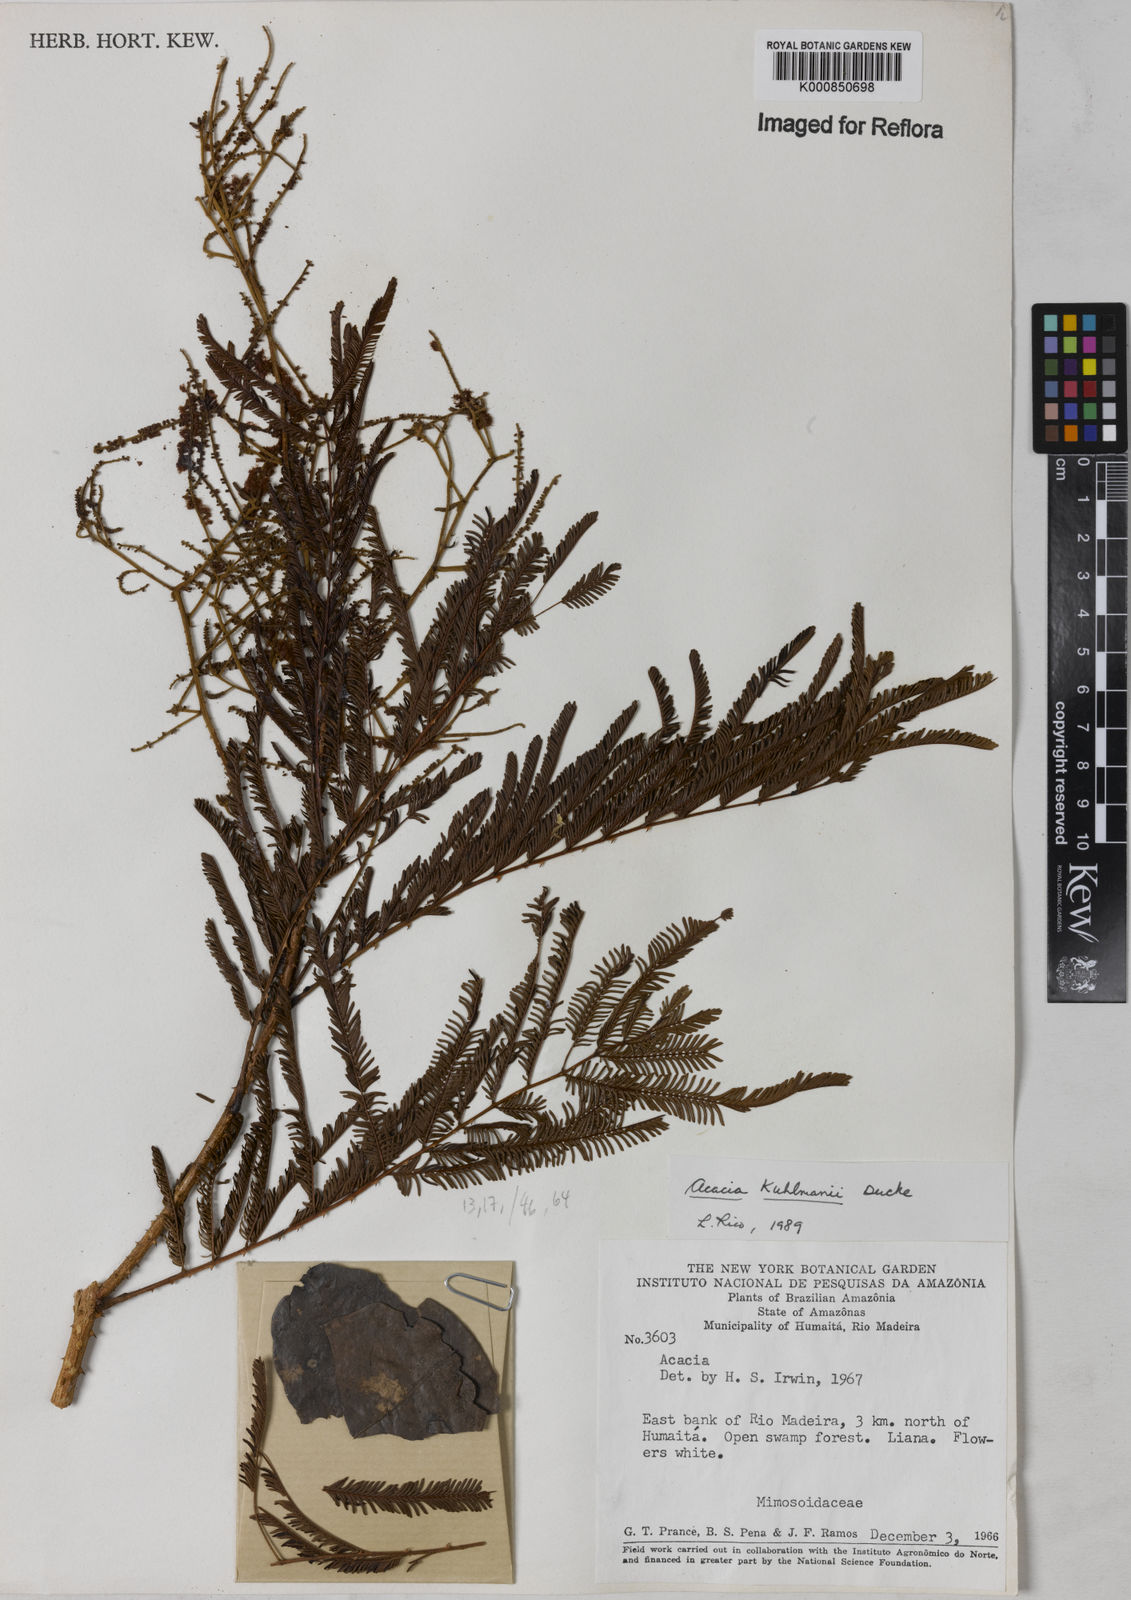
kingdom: Plantae
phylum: Tracheophyta
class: Magnoliopsida
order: Fabales
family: Fabaceae
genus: Senegalia
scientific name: Senegalia kuhlmannii
